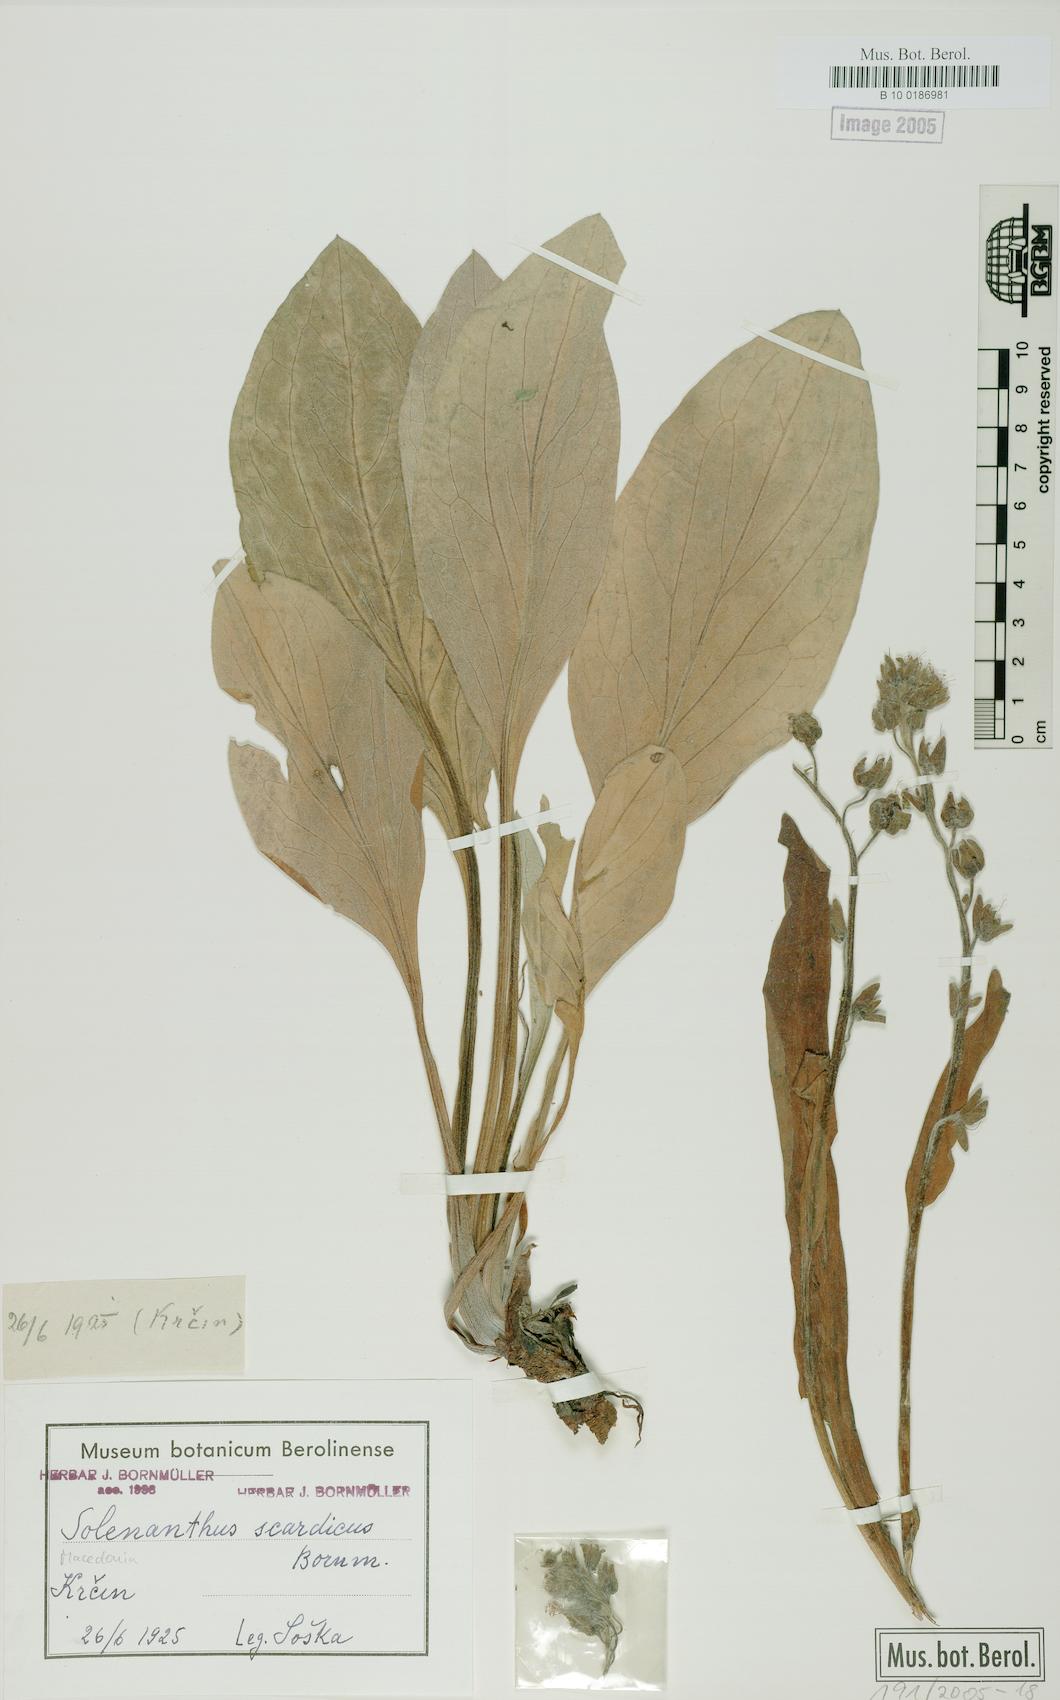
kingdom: Plantae
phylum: Tracheophyta
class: Magnoliopsida
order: Boraginales
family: Boraginaceae
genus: Solenanthus
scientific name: Solenanthus scardicus
